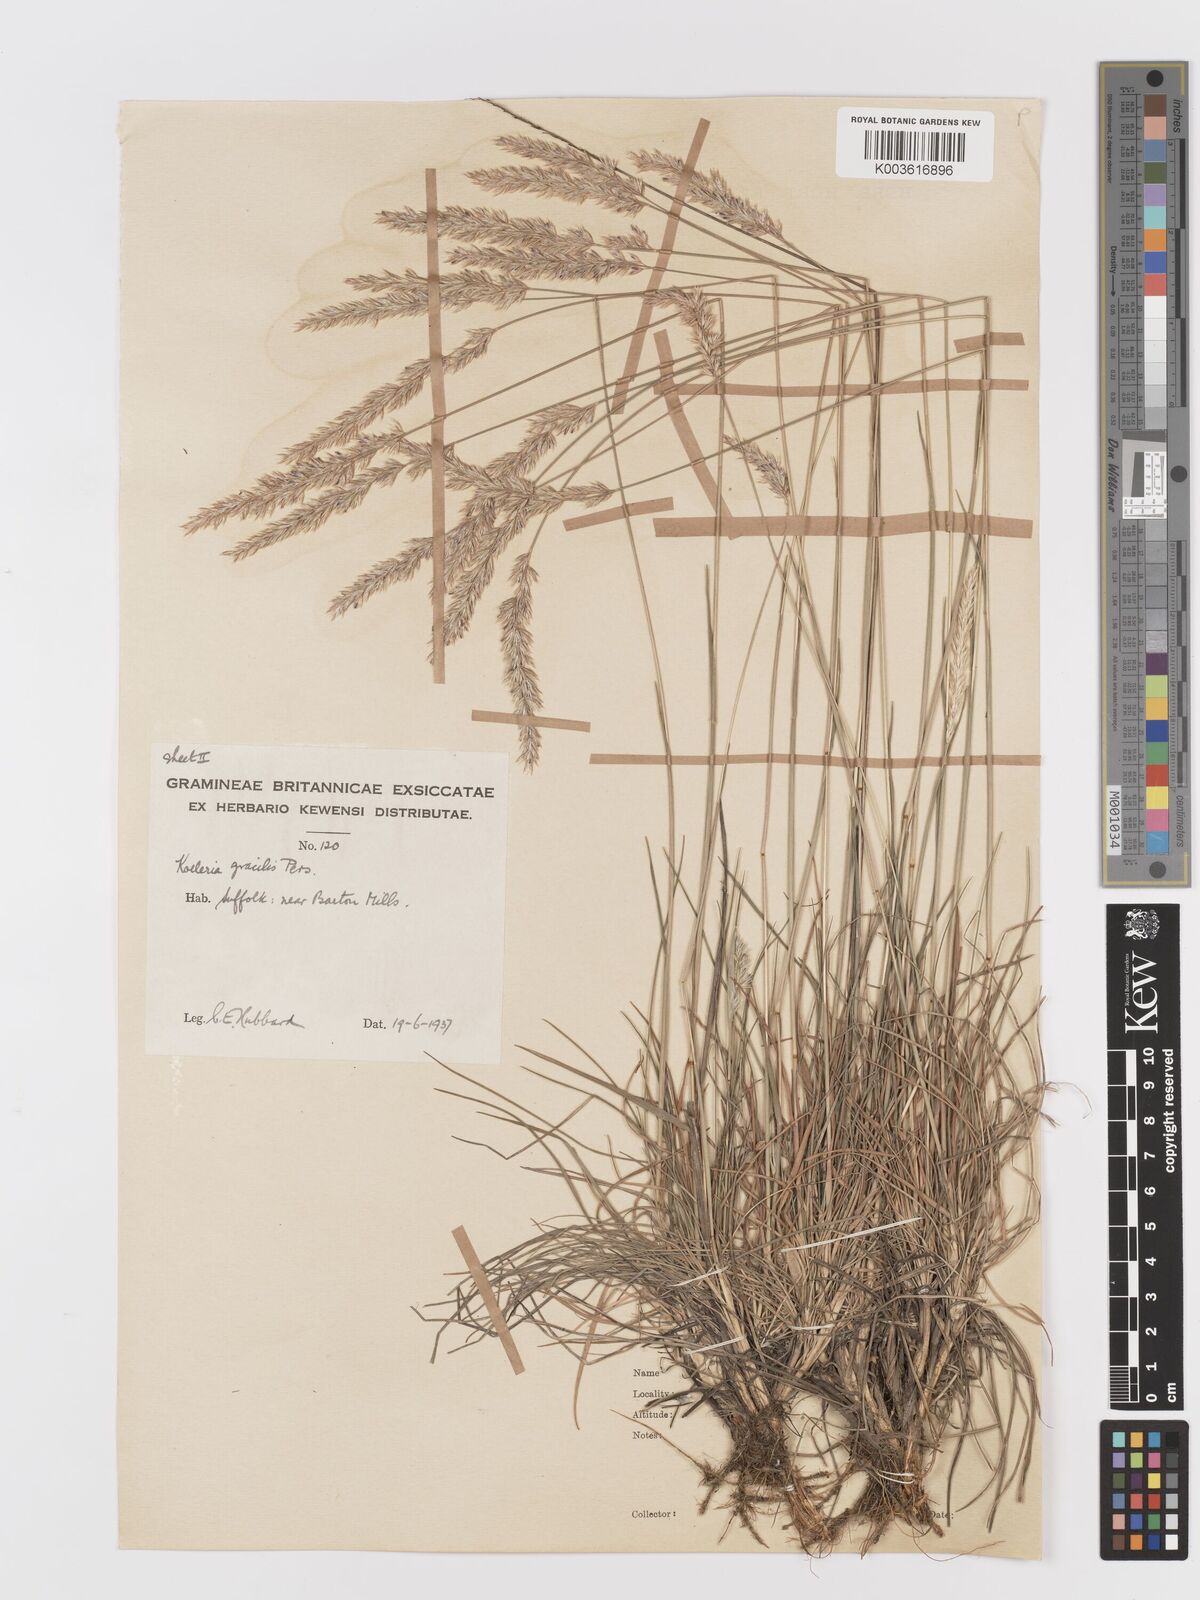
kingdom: Plantae
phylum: Tracheophyta
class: Liliopsida
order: Poales
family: Poaceae
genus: Koeleria
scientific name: Koeleria macrantha
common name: Crested hair-grass
